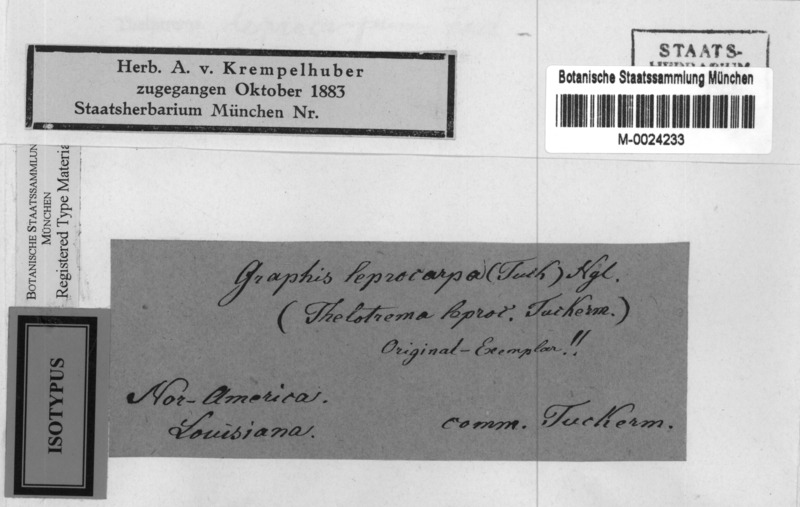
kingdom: Fungi
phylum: Ascomycota
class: Lecanoromycetes
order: Ostropales
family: Graphidaceae
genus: Chapsa
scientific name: Chapsa leprocarpa
